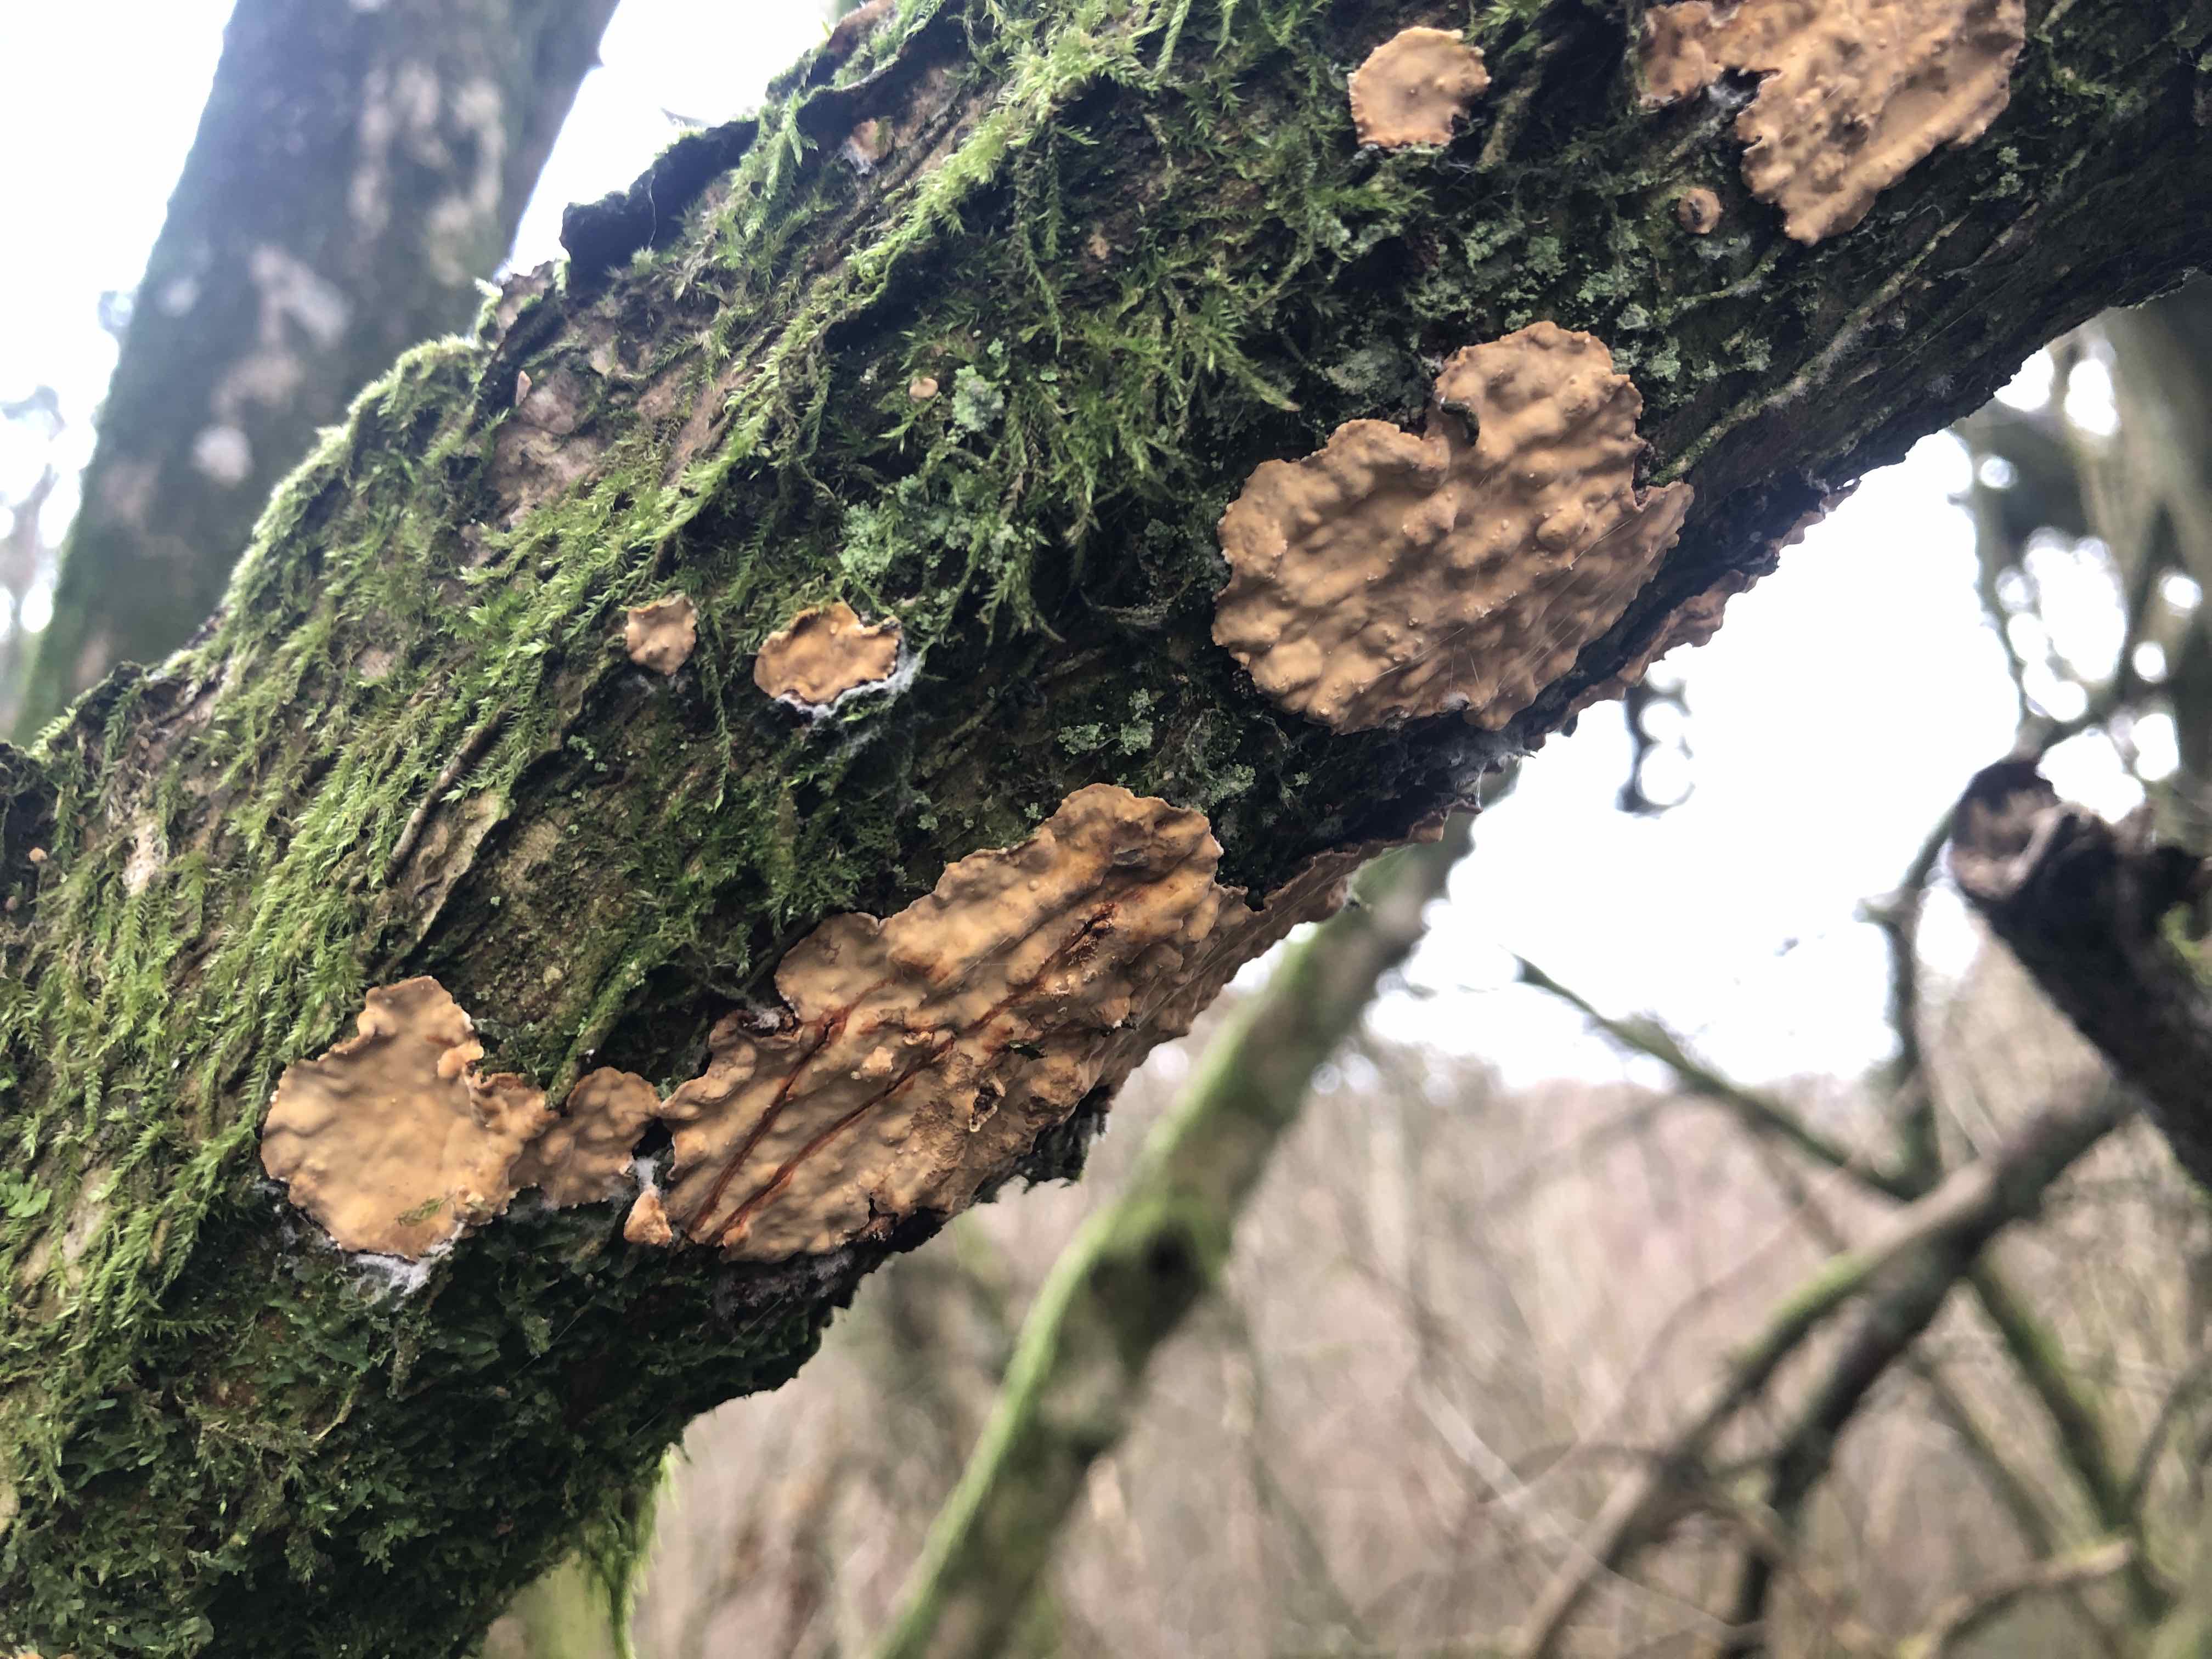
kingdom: Fungi
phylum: Basidiomycota
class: Agaricomycetes
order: Russulales
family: Stereaceae
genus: Stereum
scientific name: Stereum rugosum
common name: rynket lædersvamp
